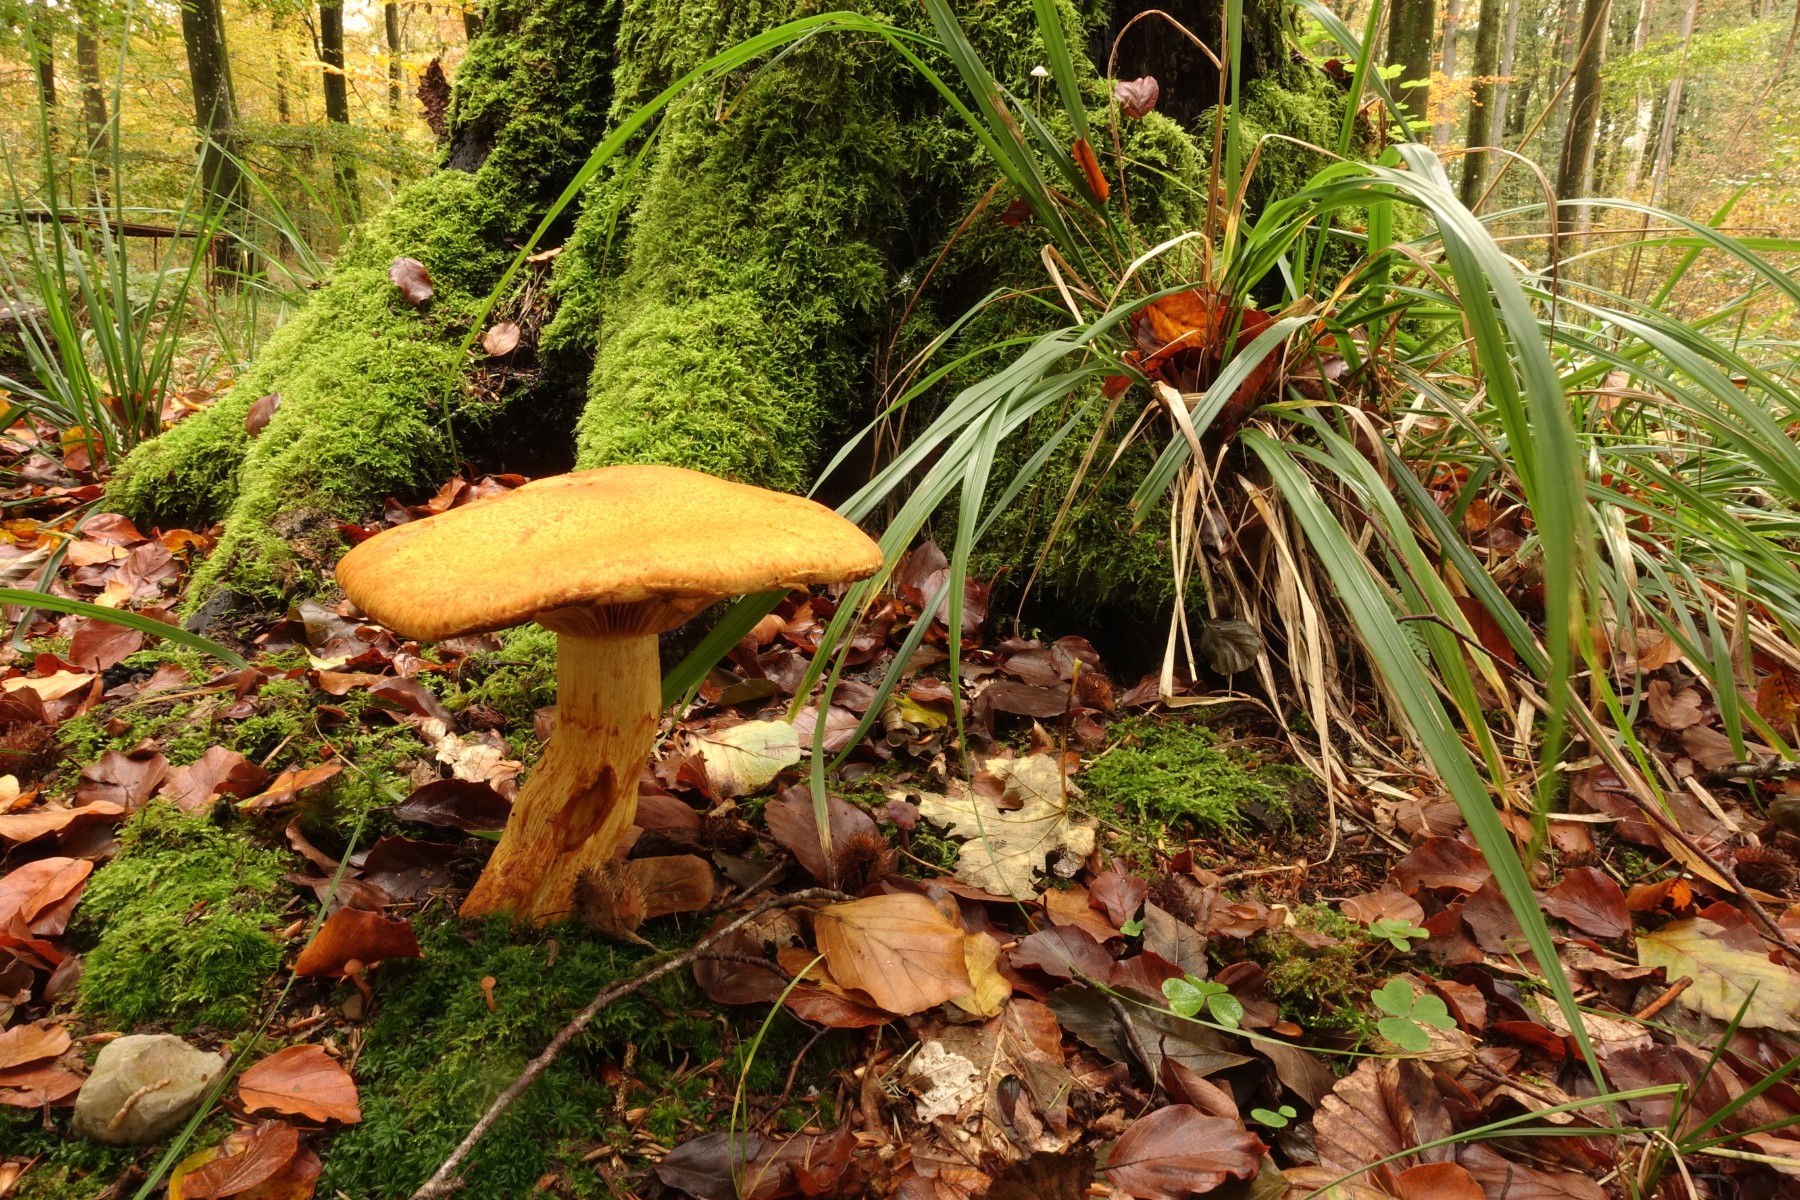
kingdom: Fungi
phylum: Basidiomycota
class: Agaricomycetes
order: Agaricales
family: Hymenogastraceae
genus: Gymnopilus
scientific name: Gymnopilus spectabilis
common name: fibret flammehat
